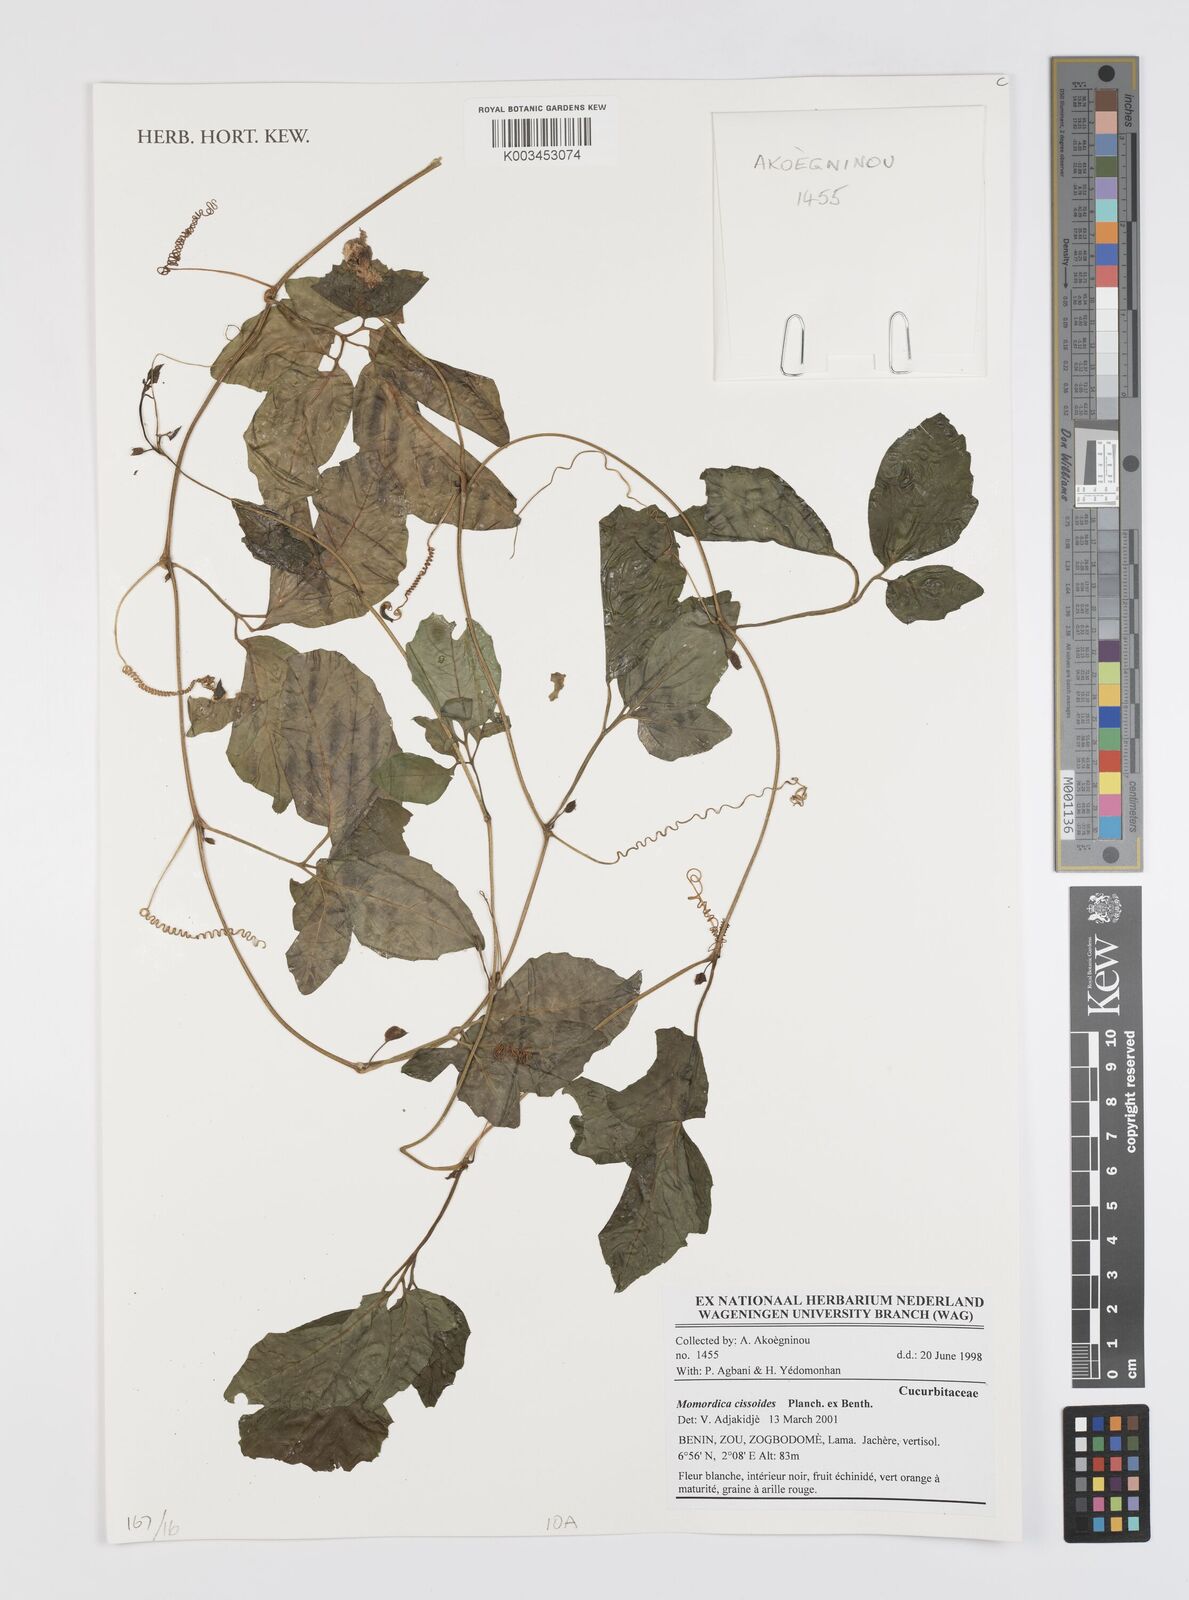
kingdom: Plantae
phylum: Tracheophyta
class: Magnoliopsida
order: Cucurbitales
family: Cucurbitaceae
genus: Momordica
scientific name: Momordica cissoides
